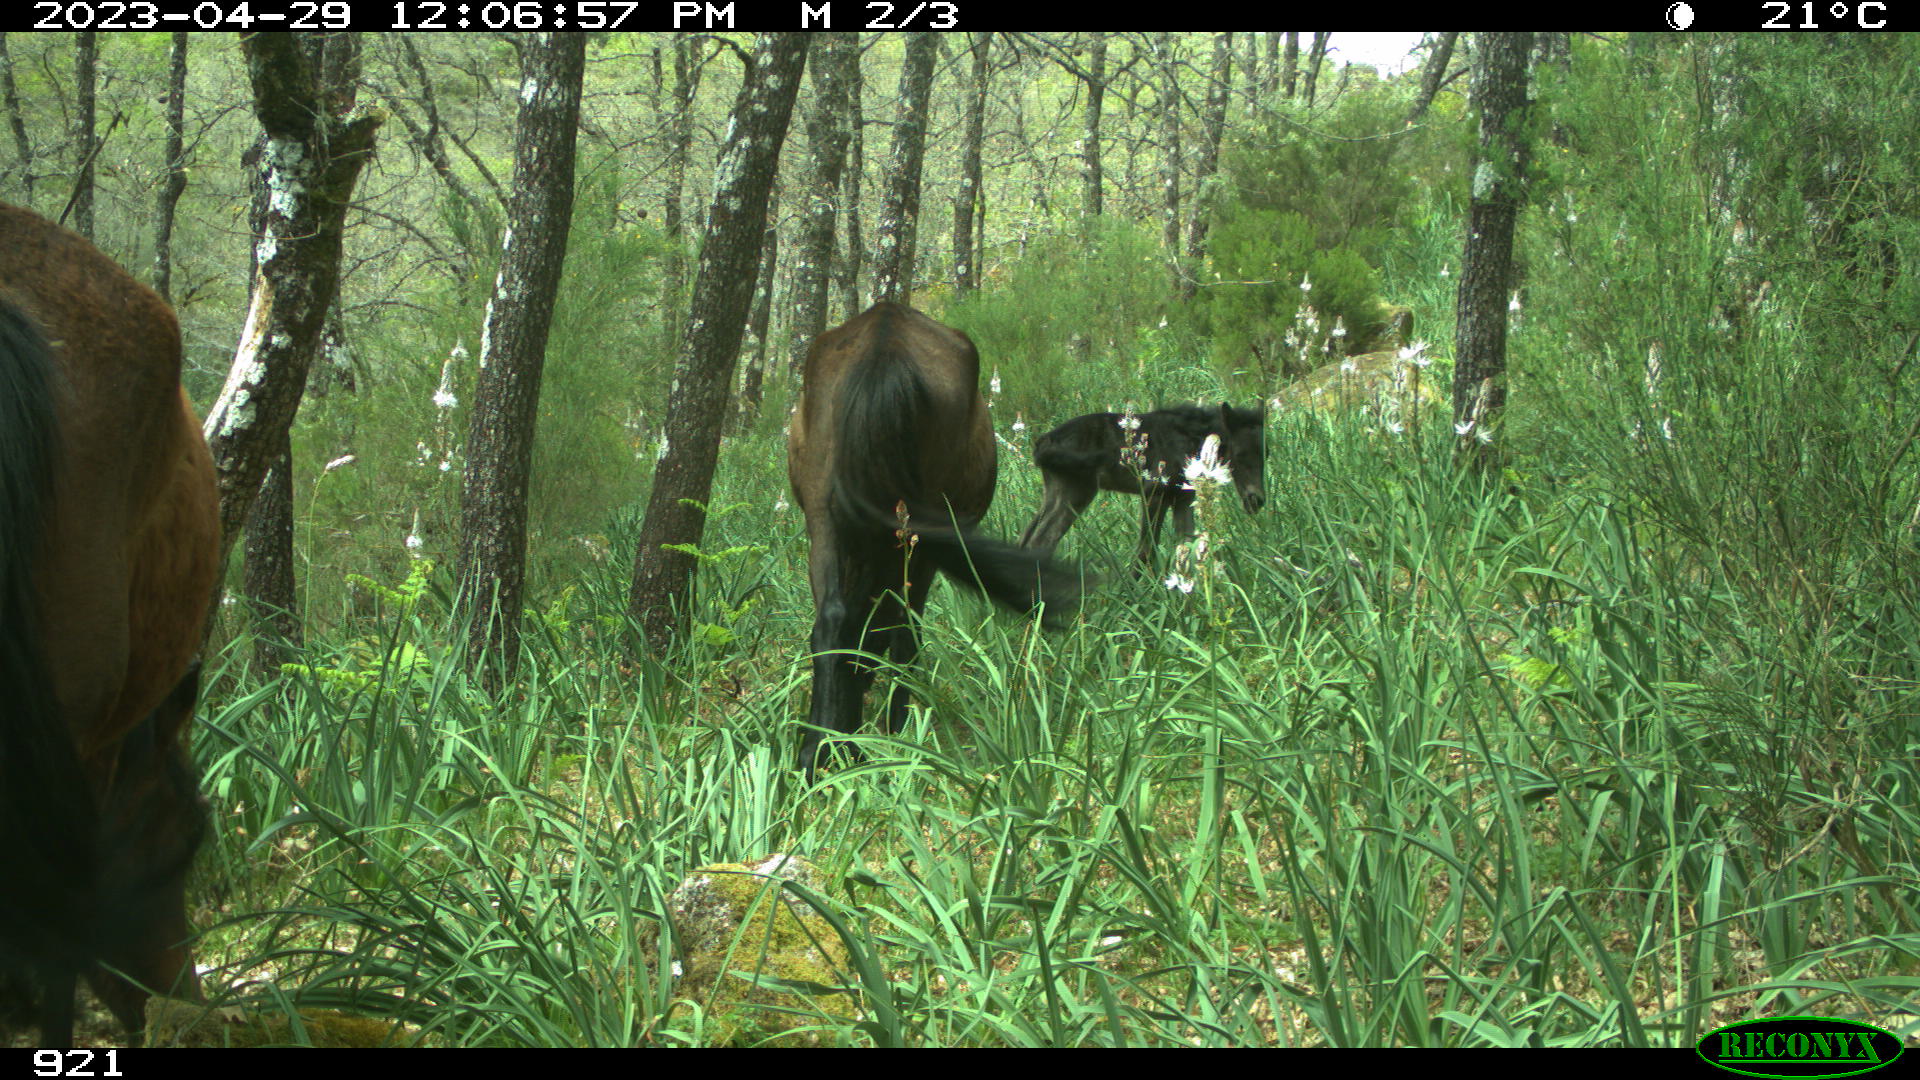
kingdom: Animalia
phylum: Chordata
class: Mammalia
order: Perissodactyla
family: Equidae
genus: Equus
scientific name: Equus caballus
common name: Horse
